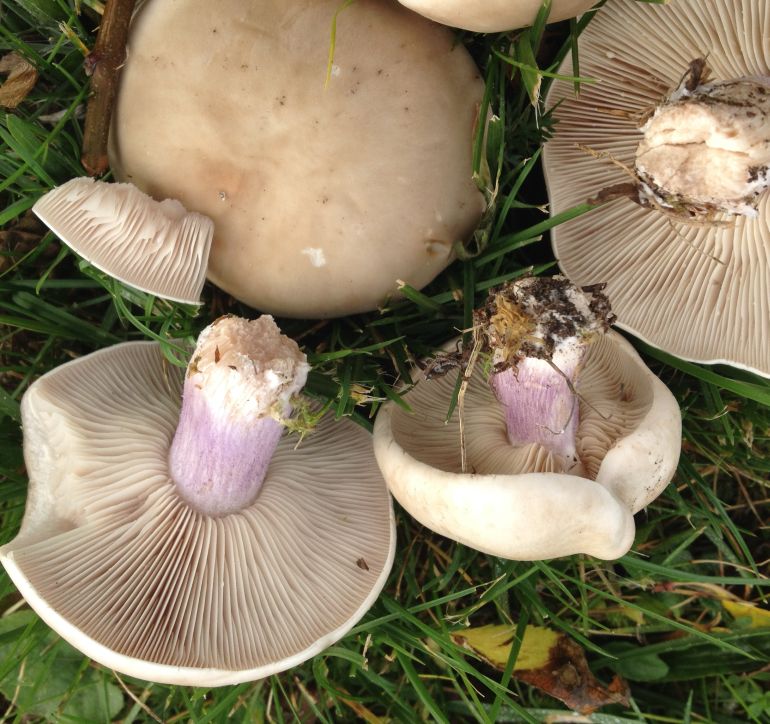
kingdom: Fungi
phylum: Basidiomycota
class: Agaricomycetes
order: Agaricales
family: Tricholomataceae
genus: Lepista
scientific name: Lepista personata
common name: bleg hekseringshat
